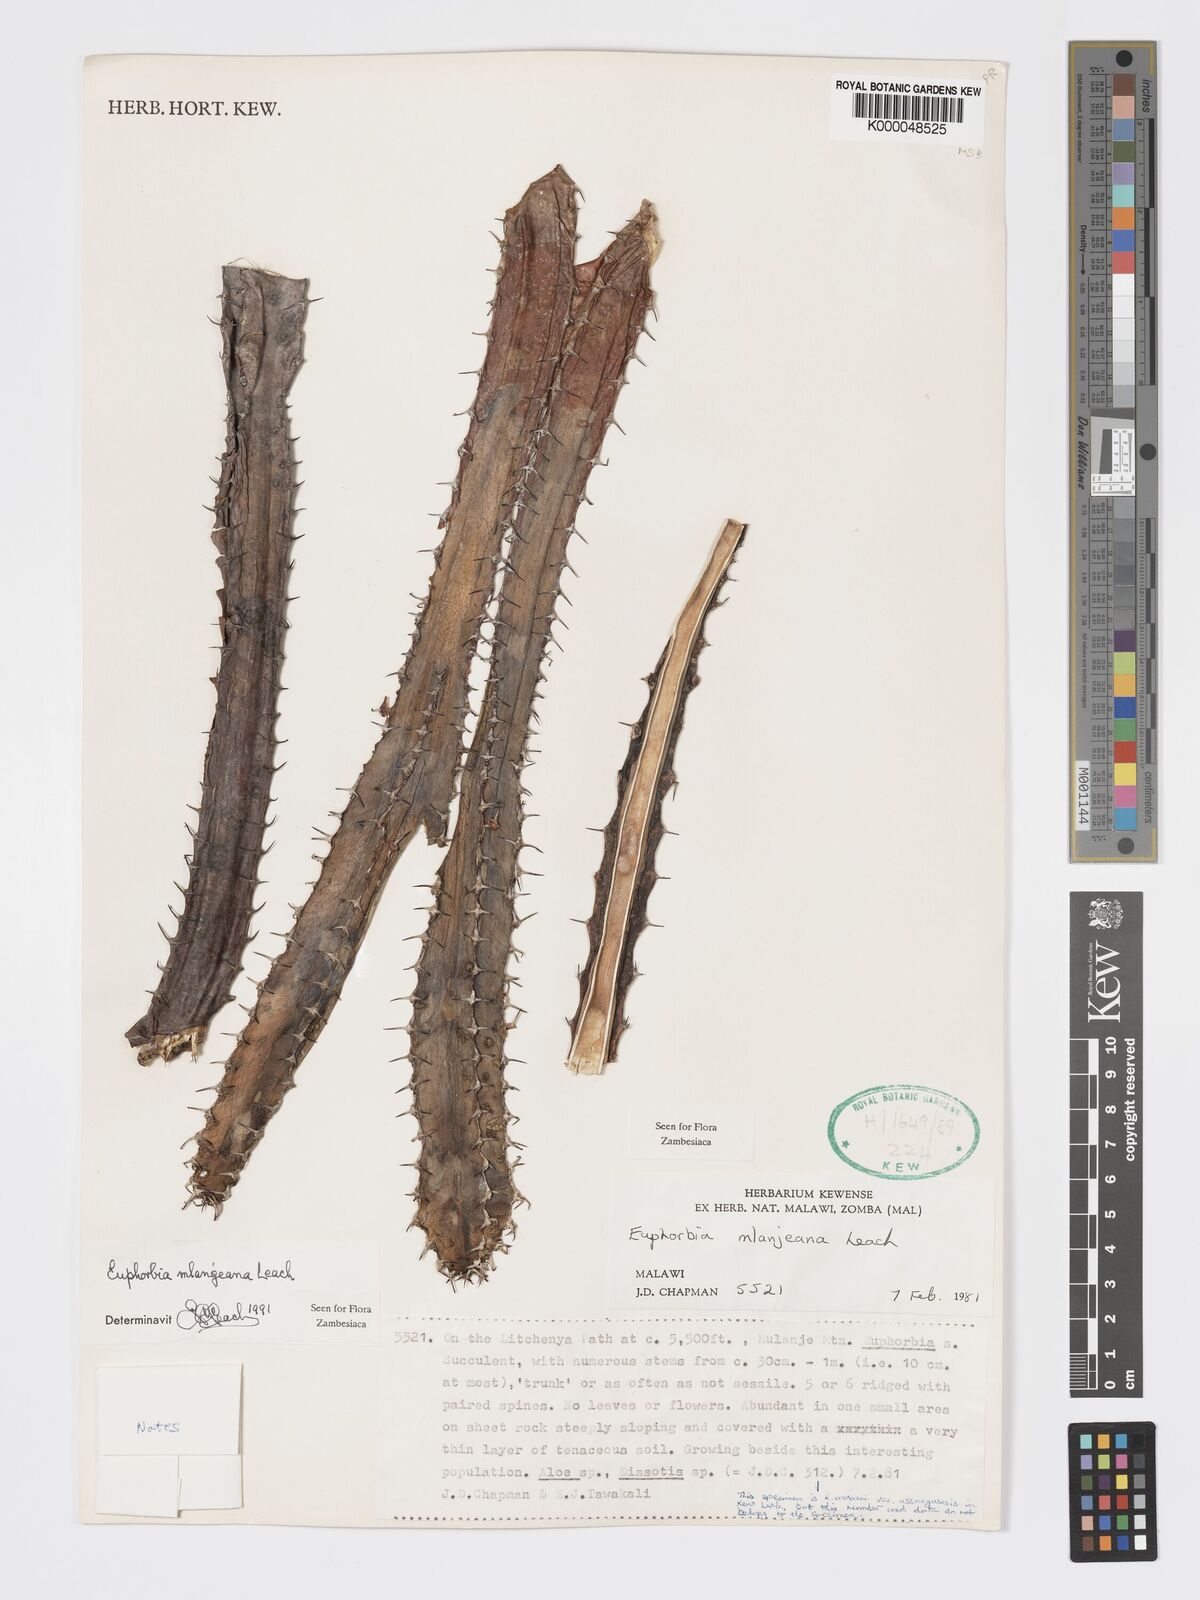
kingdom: Plantae
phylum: Tracheophyta
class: Magnoliopsida
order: Malpighiales
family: Euphorbiaceae
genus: Euphorbia
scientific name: Euphorbia mlanjeana
